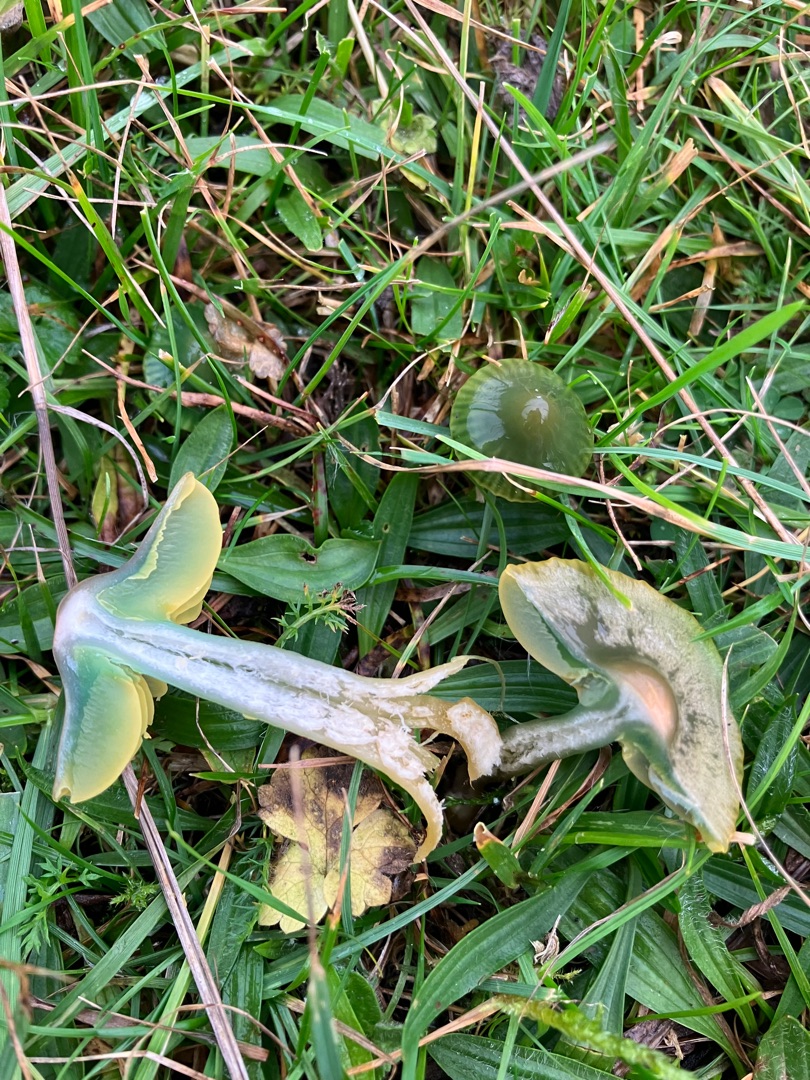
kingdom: Fungi
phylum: Basidiomycota
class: Agaricomycetes
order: Agaricales
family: Hygrophoraceae
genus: Gliophorus
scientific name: Gliophorus psittacinus
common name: Papegøje-vokshat
